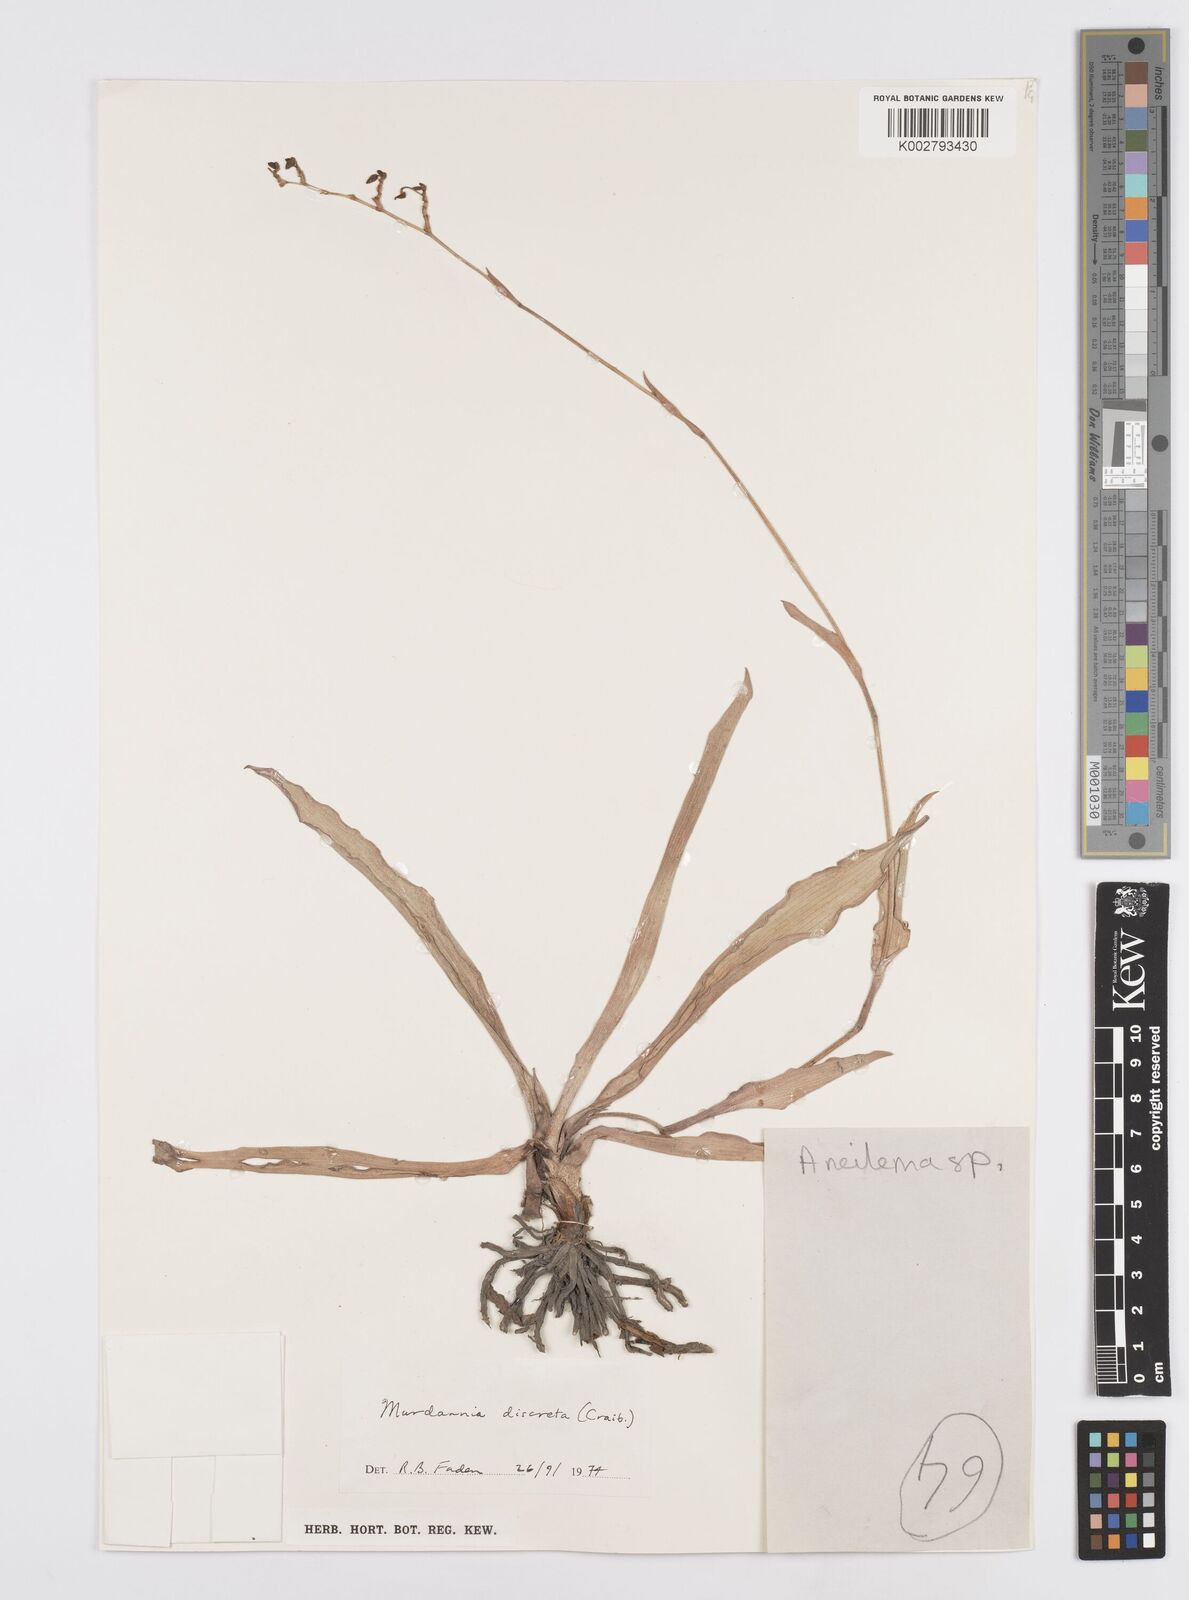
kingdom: Plantae
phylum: Tracheophyta
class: Liliopsida
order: Commelinales
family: Commelinaceae
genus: Murdannia
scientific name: Murdannia
